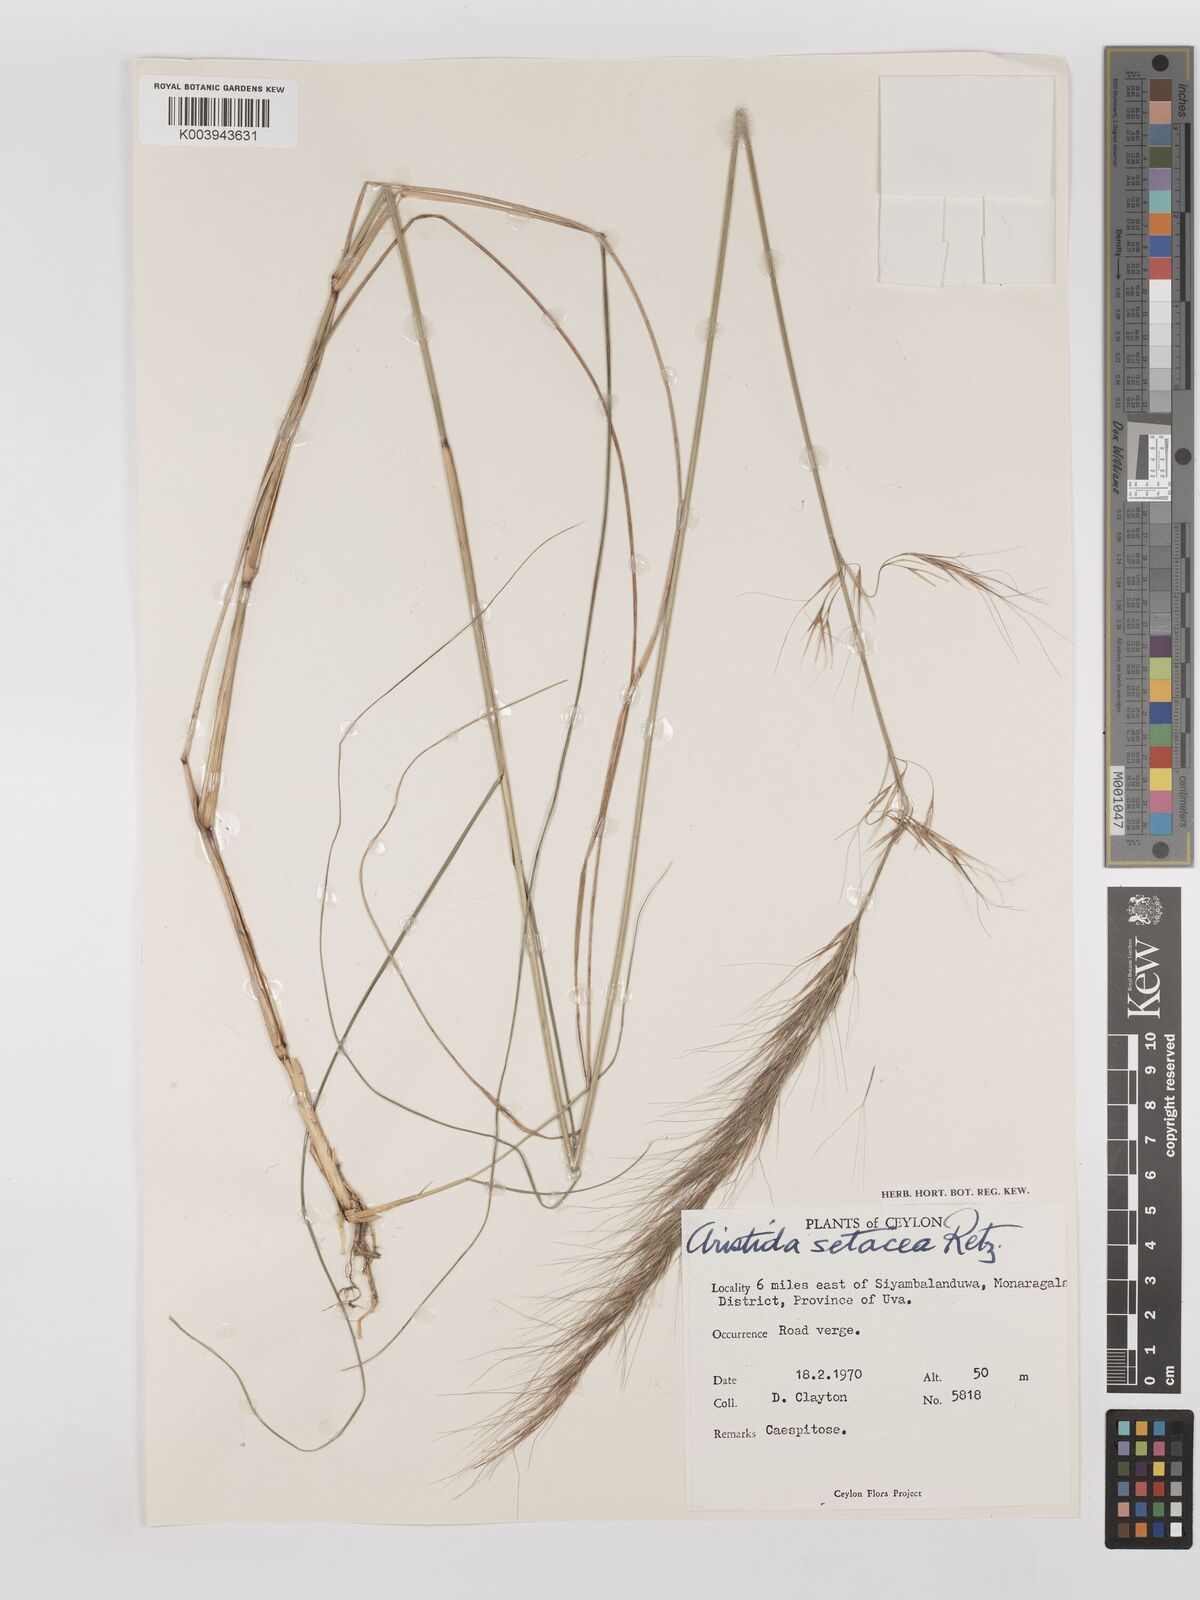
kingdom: Plantae
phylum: Tracheophyta
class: Liliopsida
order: Poales
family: Poaceae
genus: Aristida
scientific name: Aristida setacea
